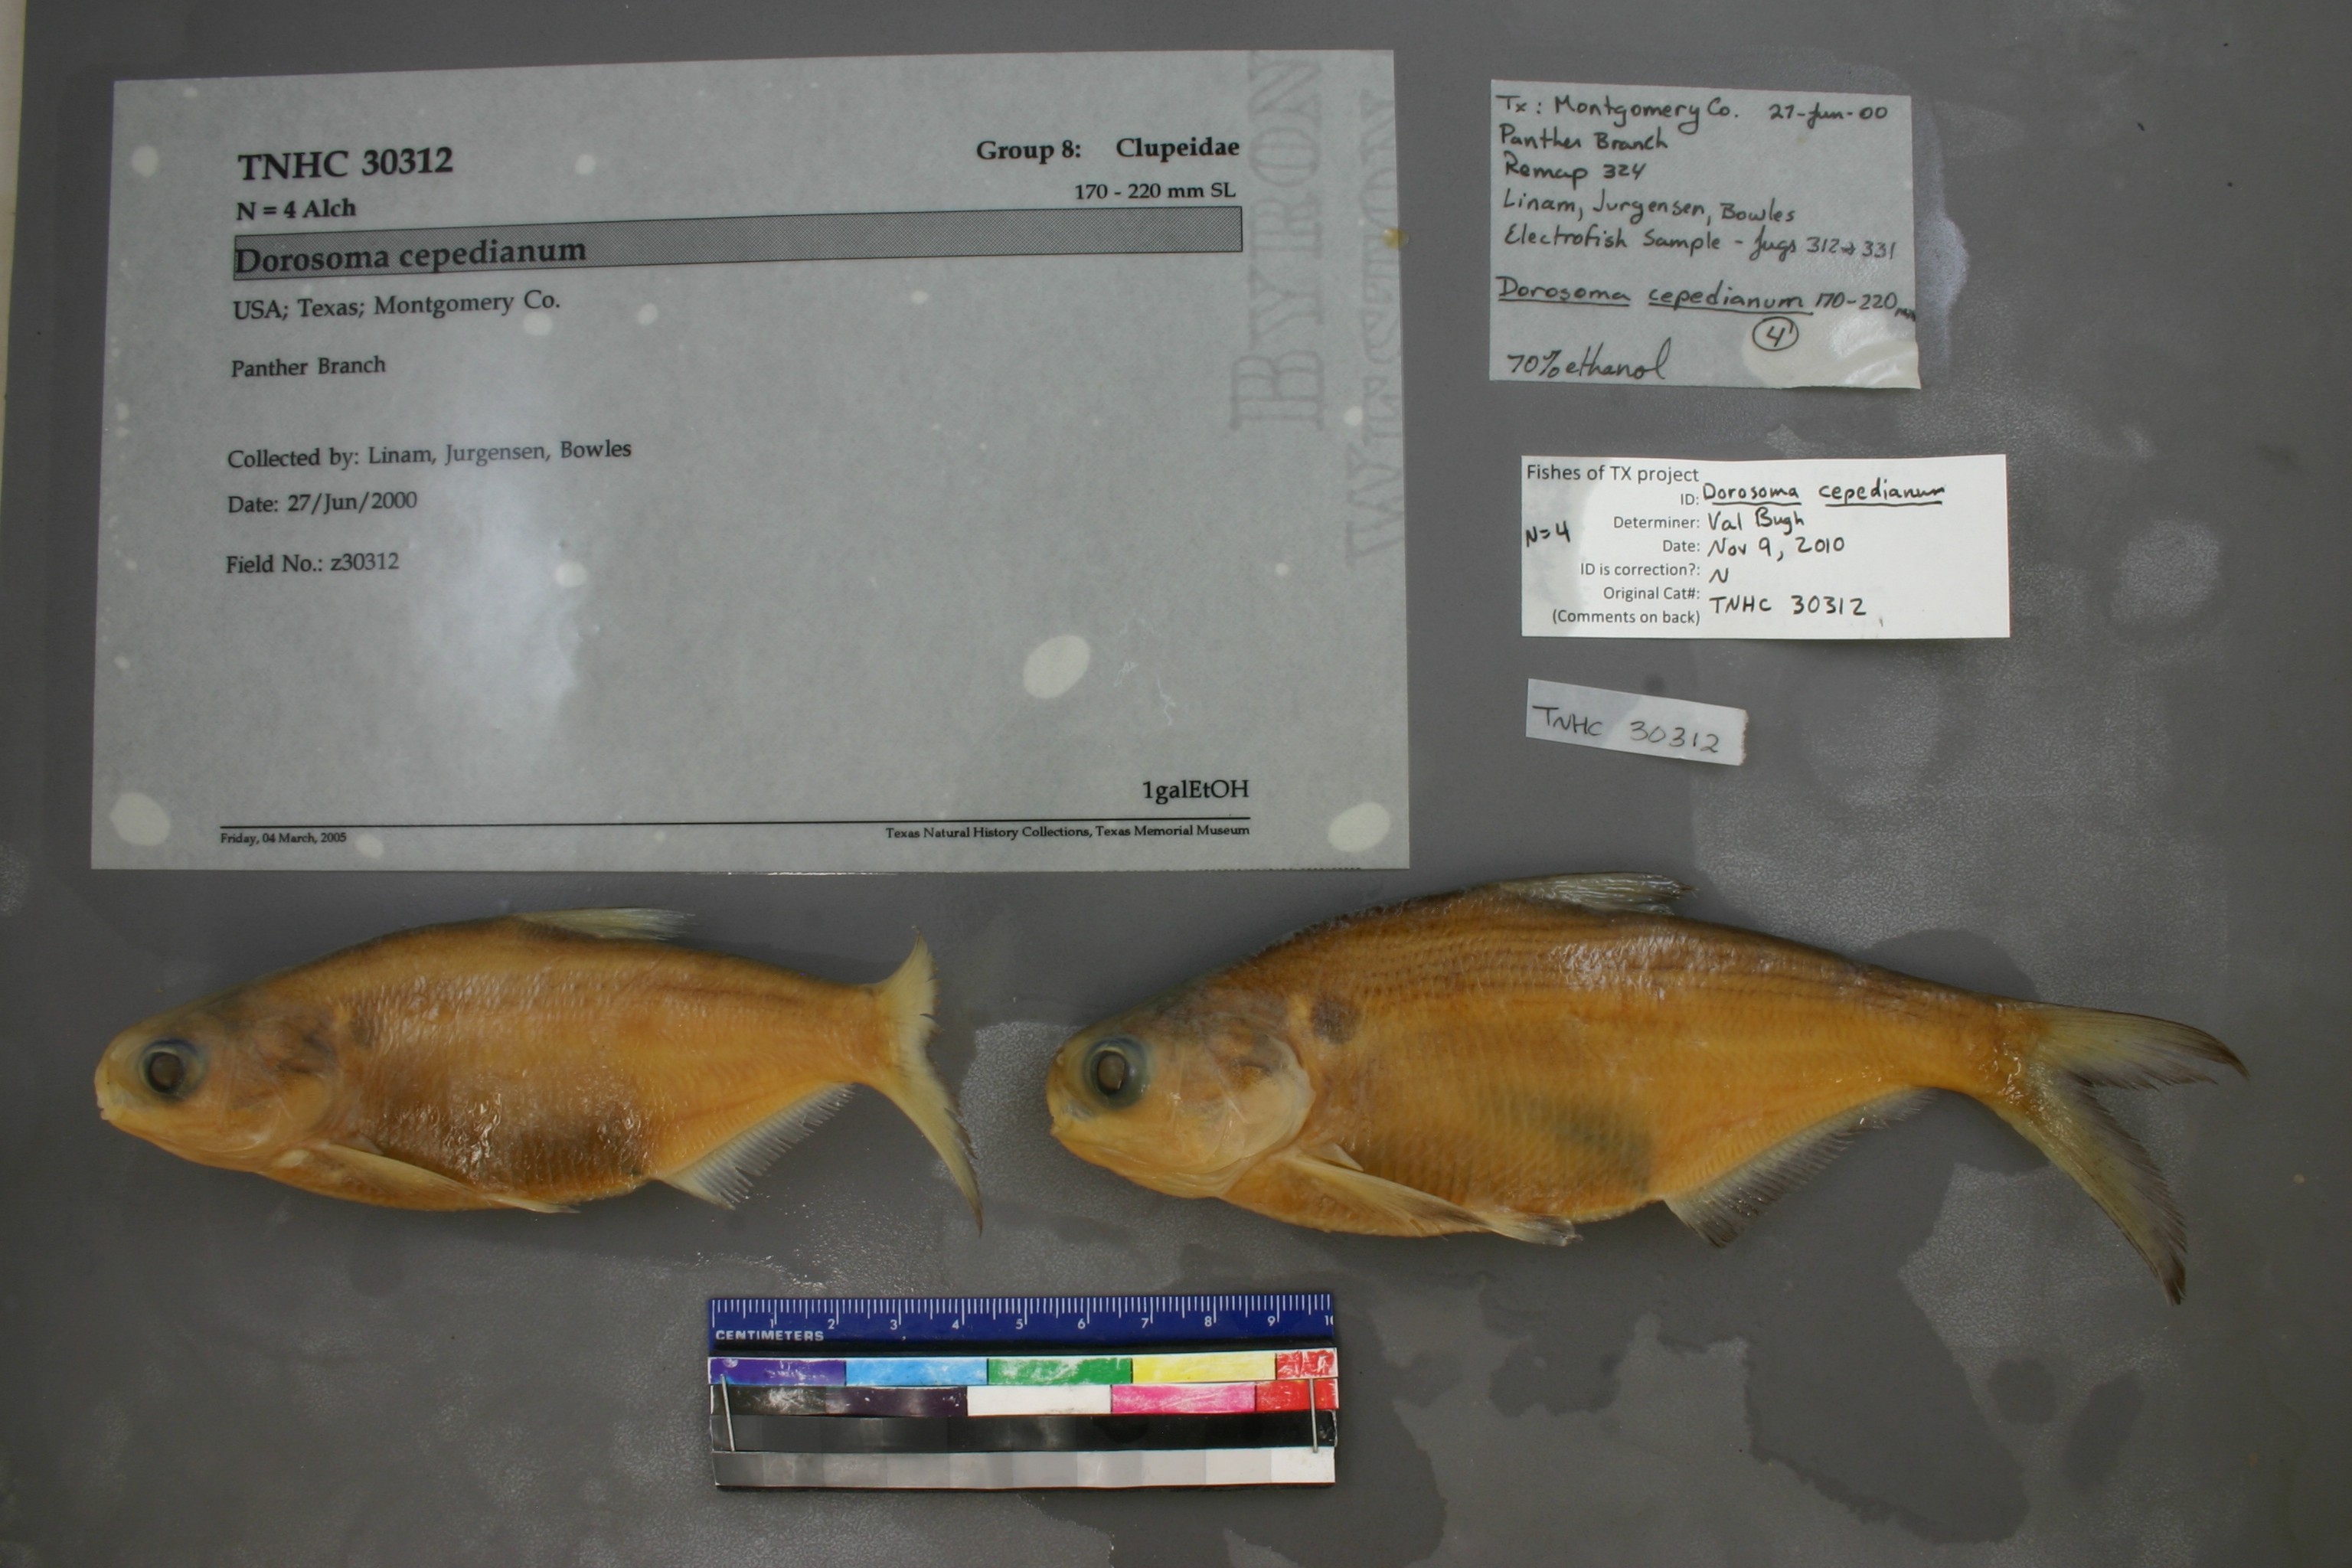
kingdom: Animalia
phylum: Chordata
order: Clupeiformes
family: Clupeidae
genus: Dorosoma
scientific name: Dorosoma cepedianum
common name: Gizzard shad
